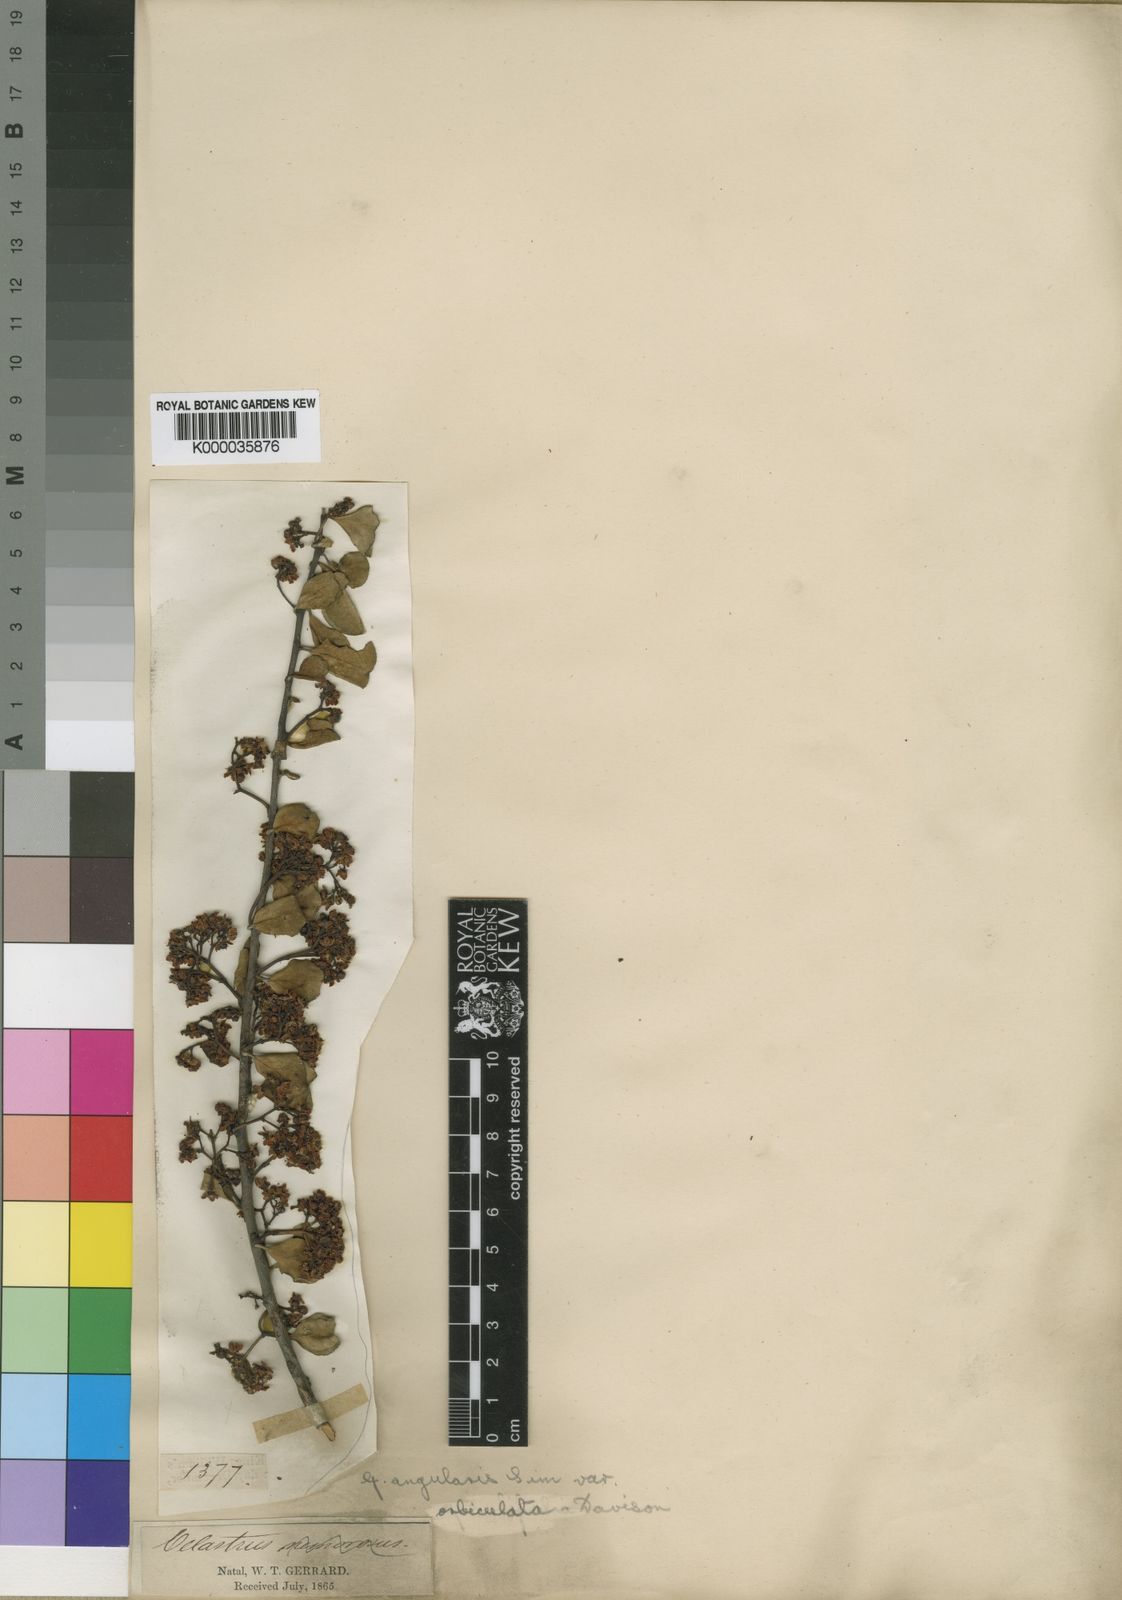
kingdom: Plantae
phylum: Tracheophyta
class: Magnoliopsida
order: Celastrales
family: Celastraceae
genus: Gymnosporia
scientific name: Gymnosporia heterophylla
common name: Angle-stem spikethorn
